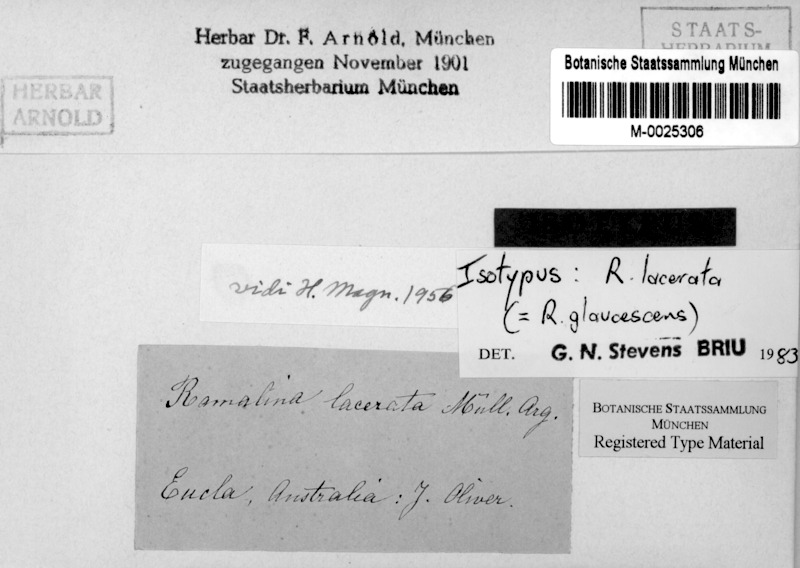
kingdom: Fungi
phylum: Ascomycota
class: Lecanoromycetes
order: Lecanorales
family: Ramalinaceae
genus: Ramalina
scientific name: Ramalina glaucescens
